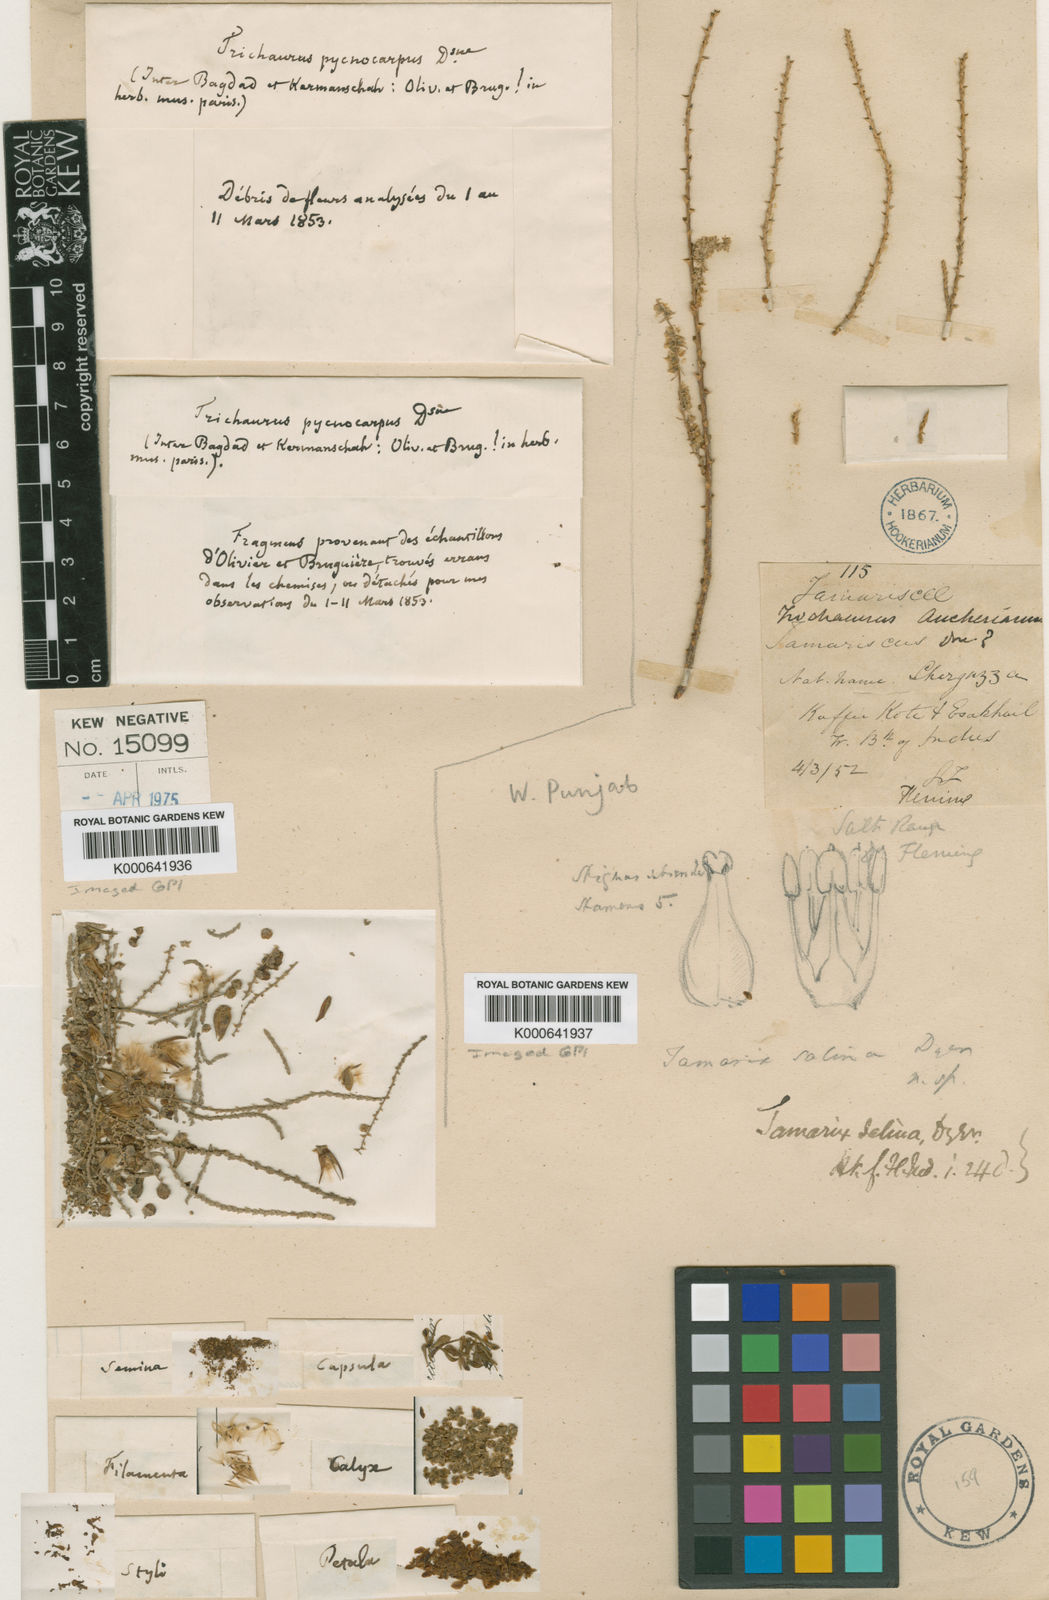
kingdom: Plantae
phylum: Tracheophyta
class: Magnoliopsida
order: Caryophyllales
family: Tamaricaceae
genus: Tamarix
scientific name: Tamarix salina
